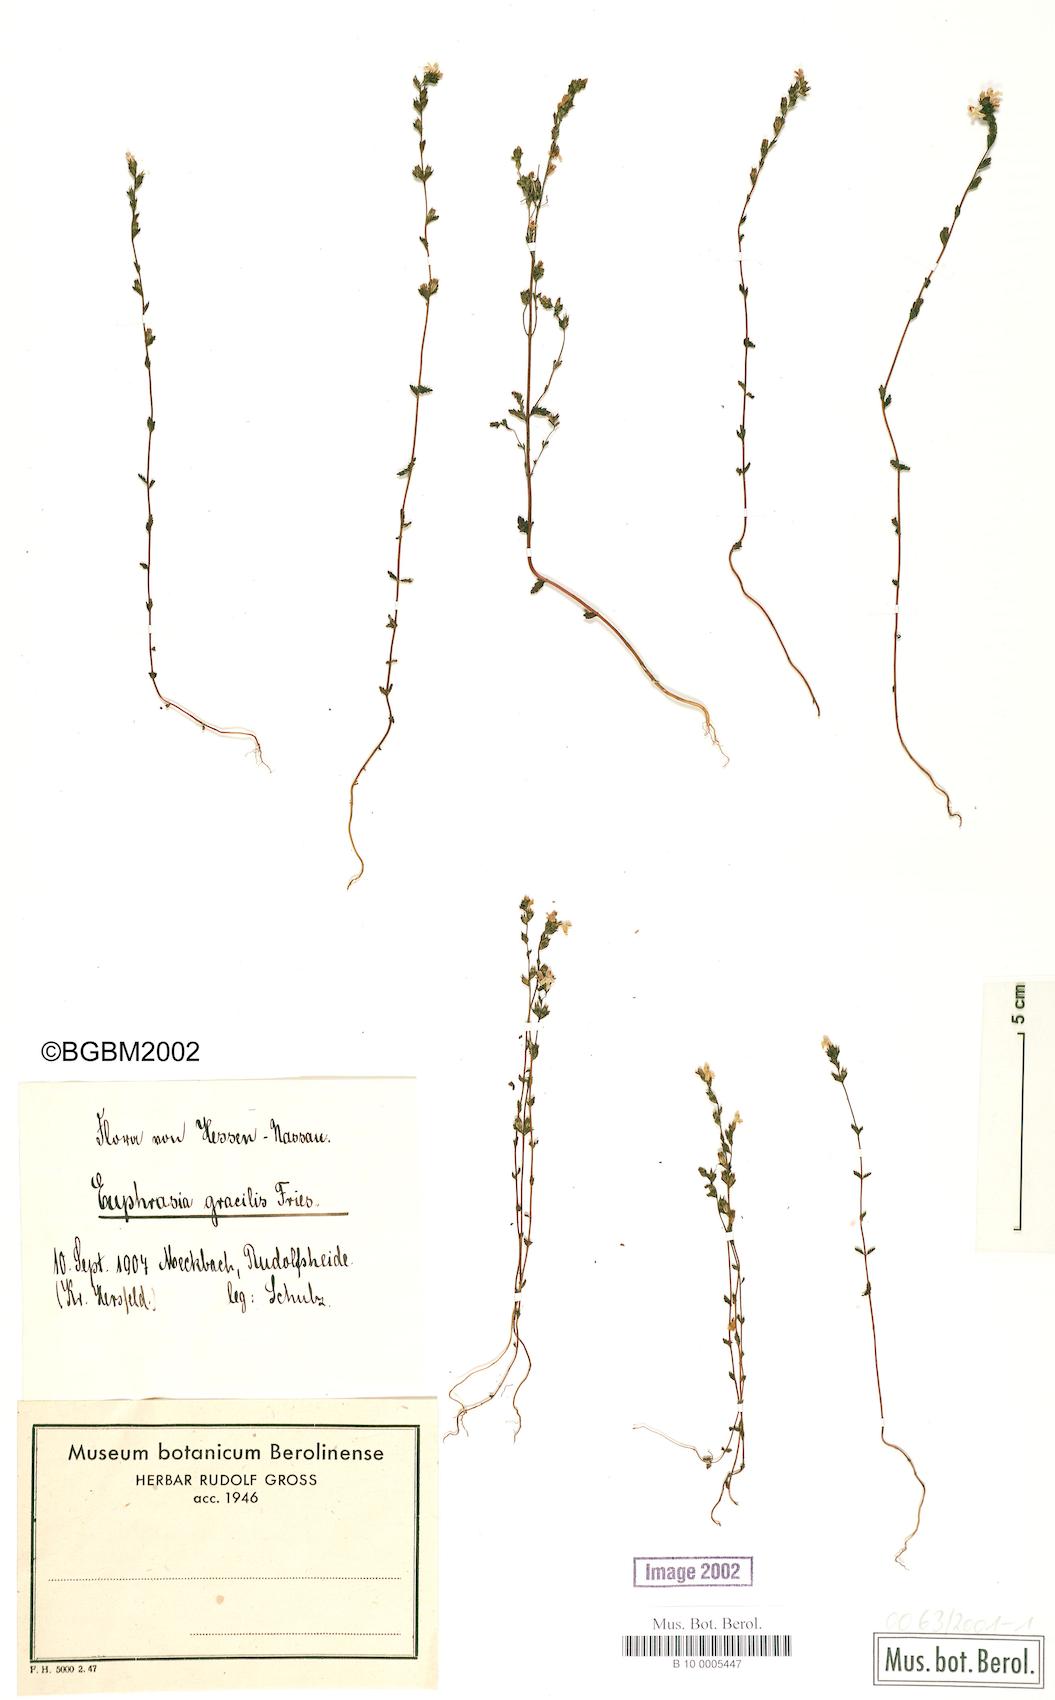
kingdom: Plantae
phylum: Tracheophyta
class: Magnoliopsida
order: Lamiales
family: Orobanchaceae
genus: Euphrasia
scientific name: Euphrasia
